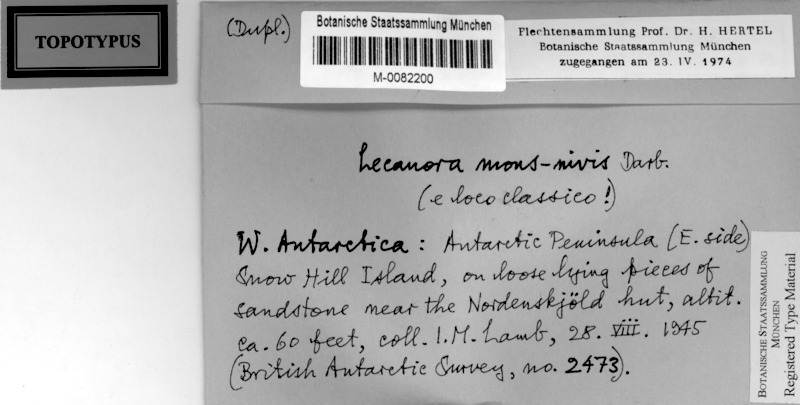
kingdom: Fungi
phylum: Ascomycota
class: Lecanoromycetes
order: Lecanorales
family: Lecanoraceae
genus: Polyozosia
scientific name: Polyozosia mons-nivis
